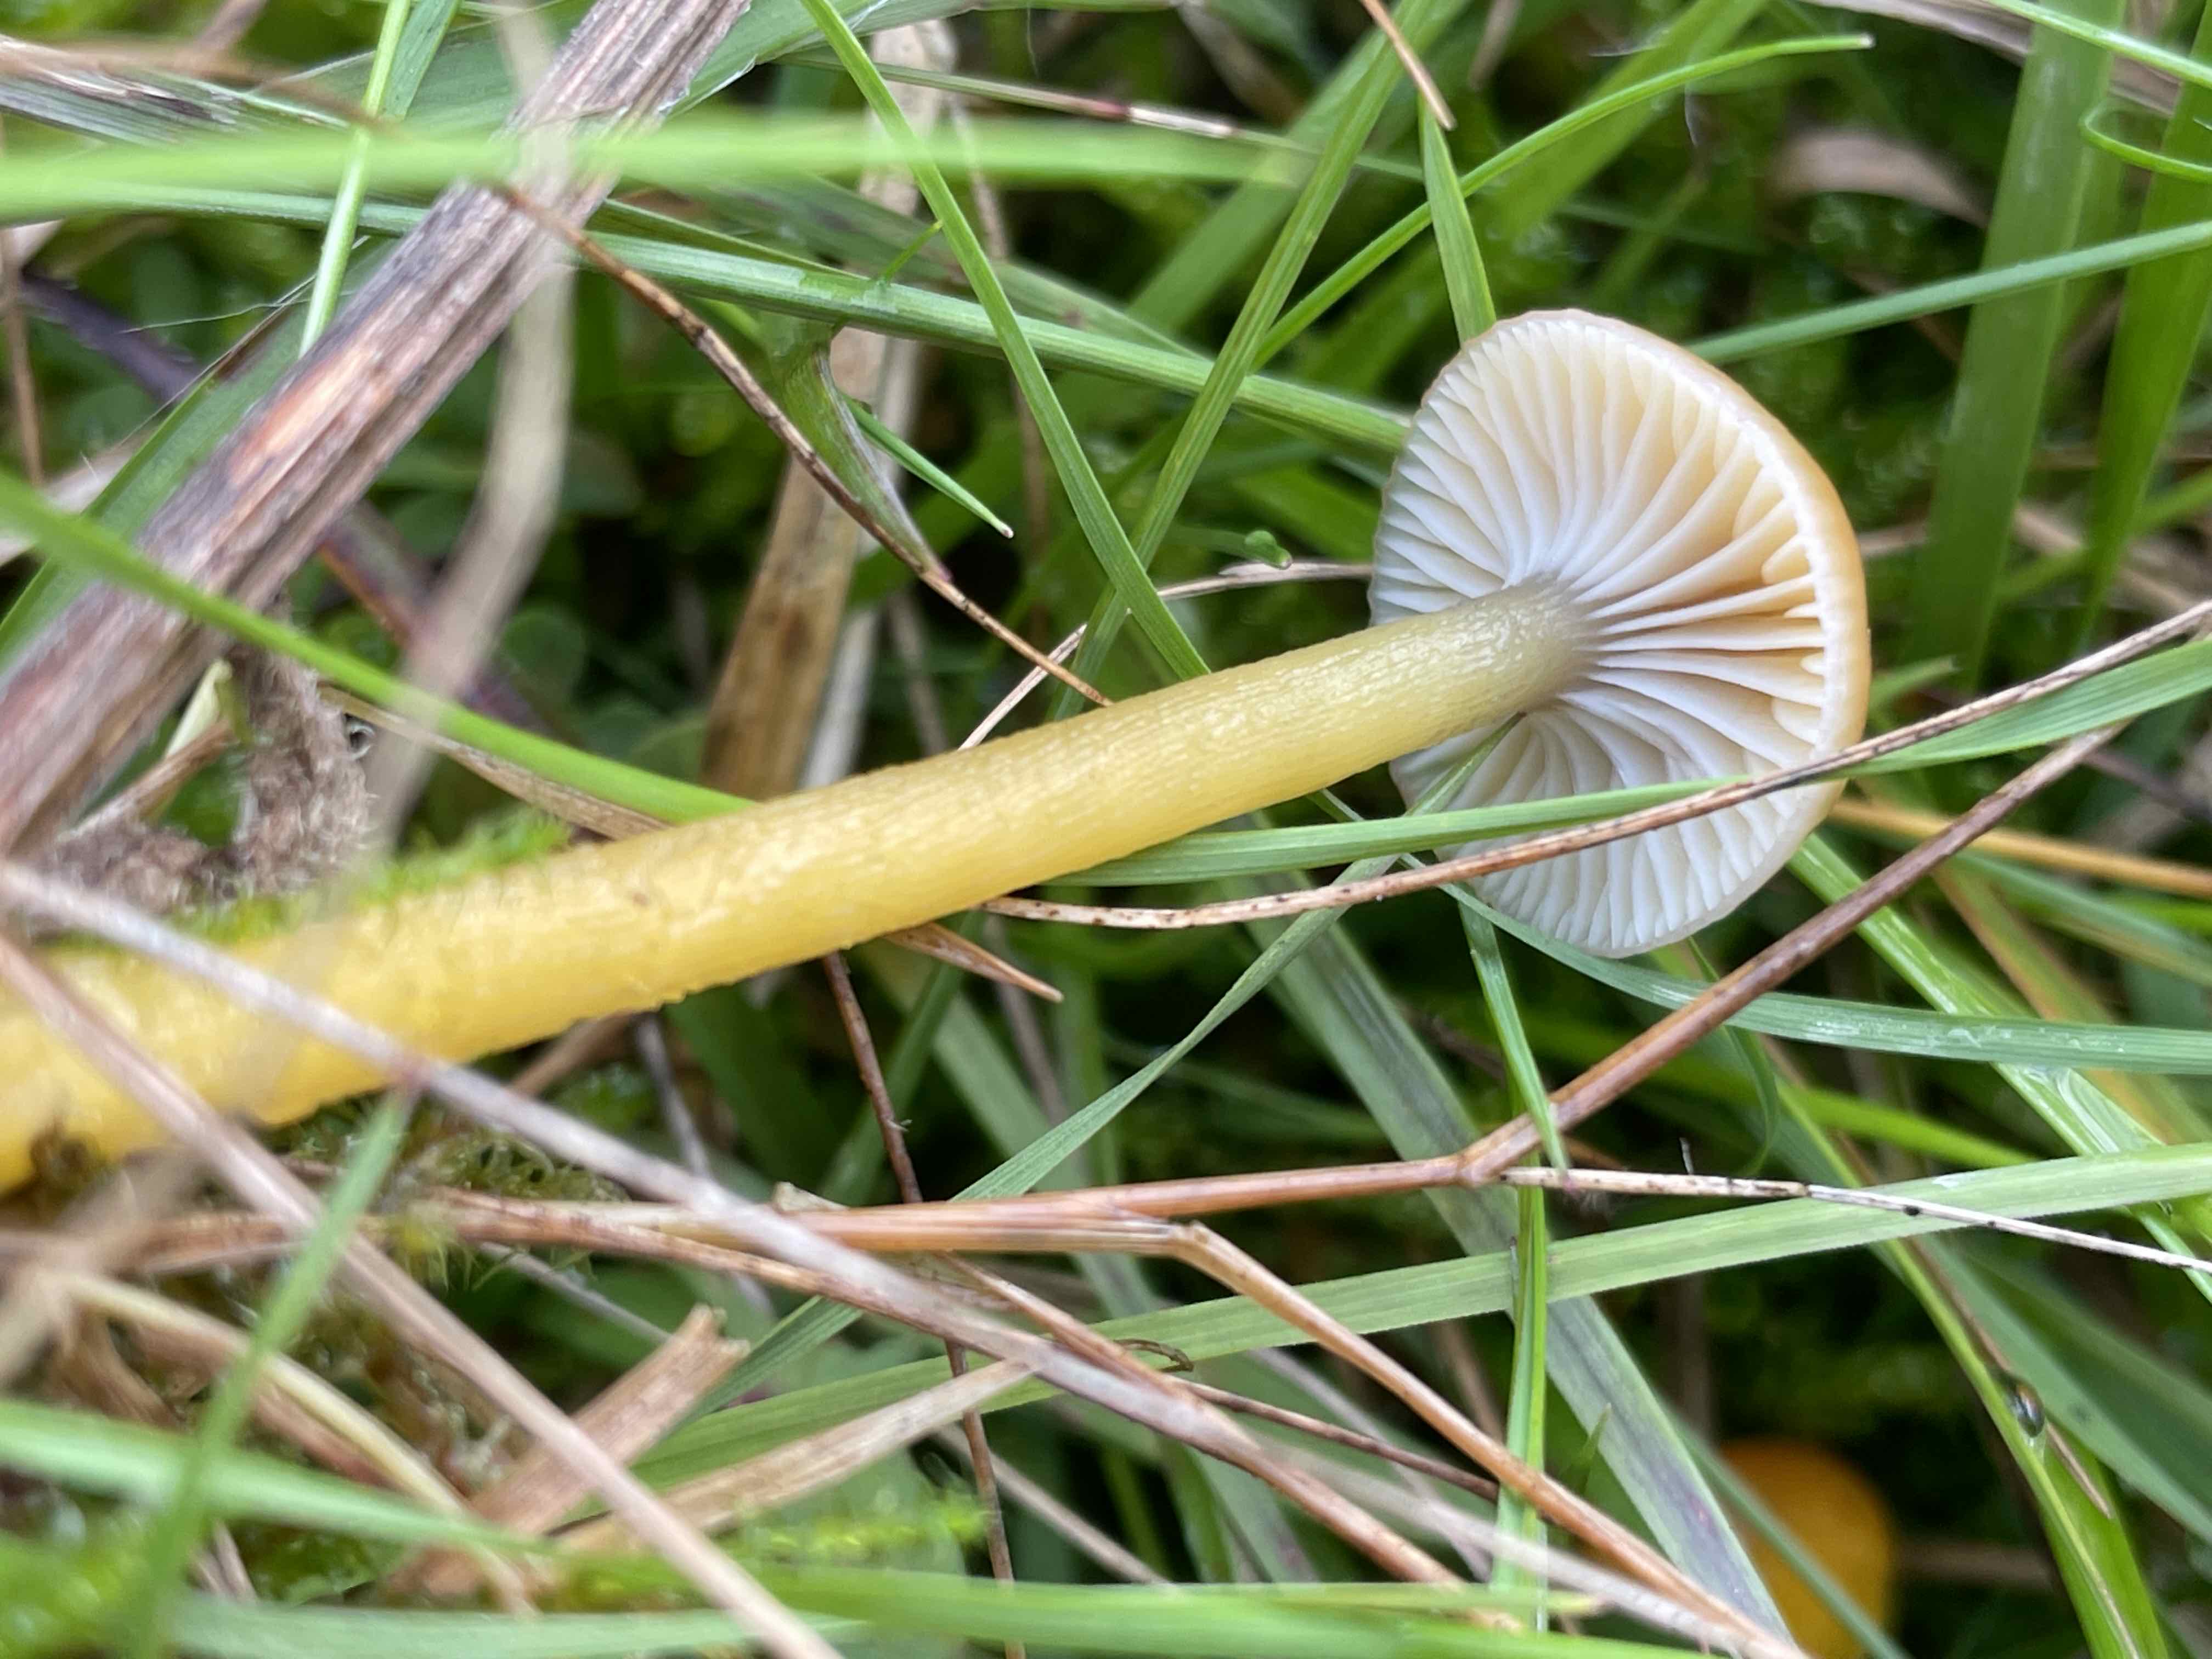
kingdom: Fungi
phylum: Basidiomycota
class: Agaricomycetes
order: Agaricales
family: Hygrophoraceae
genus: Gliophorus
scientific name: Gliophorus laetus
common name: brusk-vokshat
